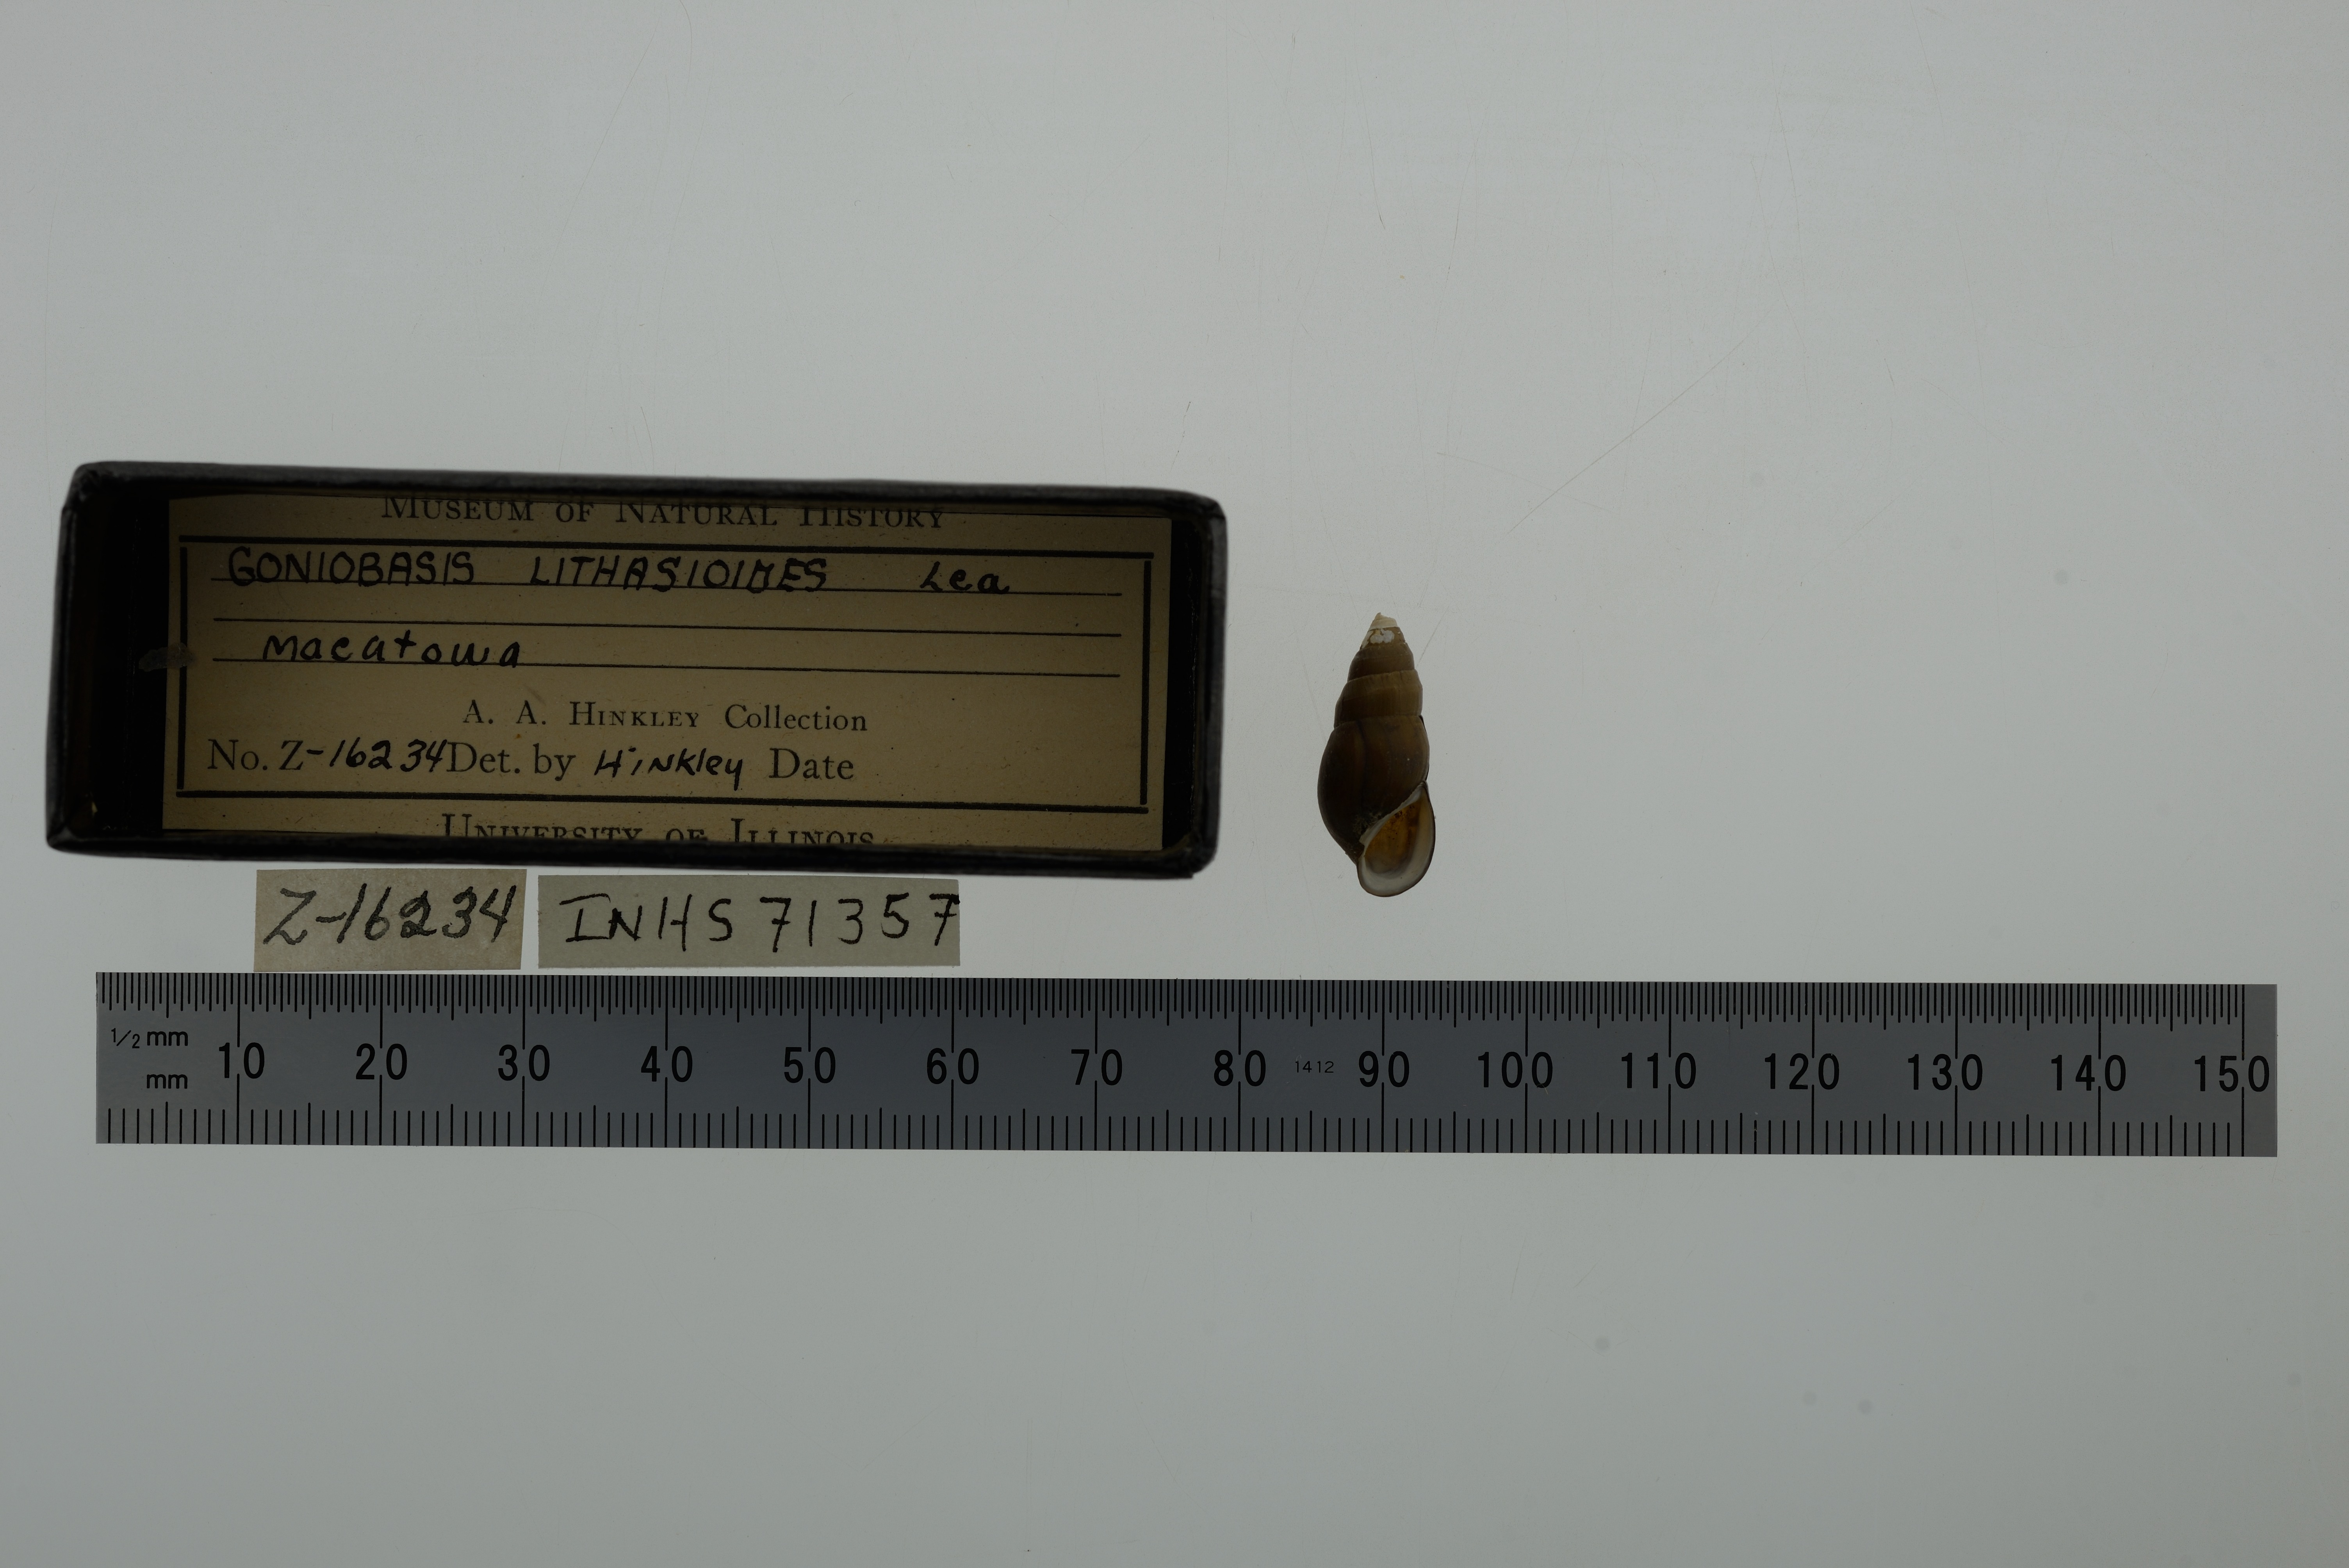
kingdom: Animalia
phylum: Mollusca
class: Gastropoda
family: Pleuroceridae
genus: Elimia
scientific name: Elimia livescens
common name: Liver elimia
